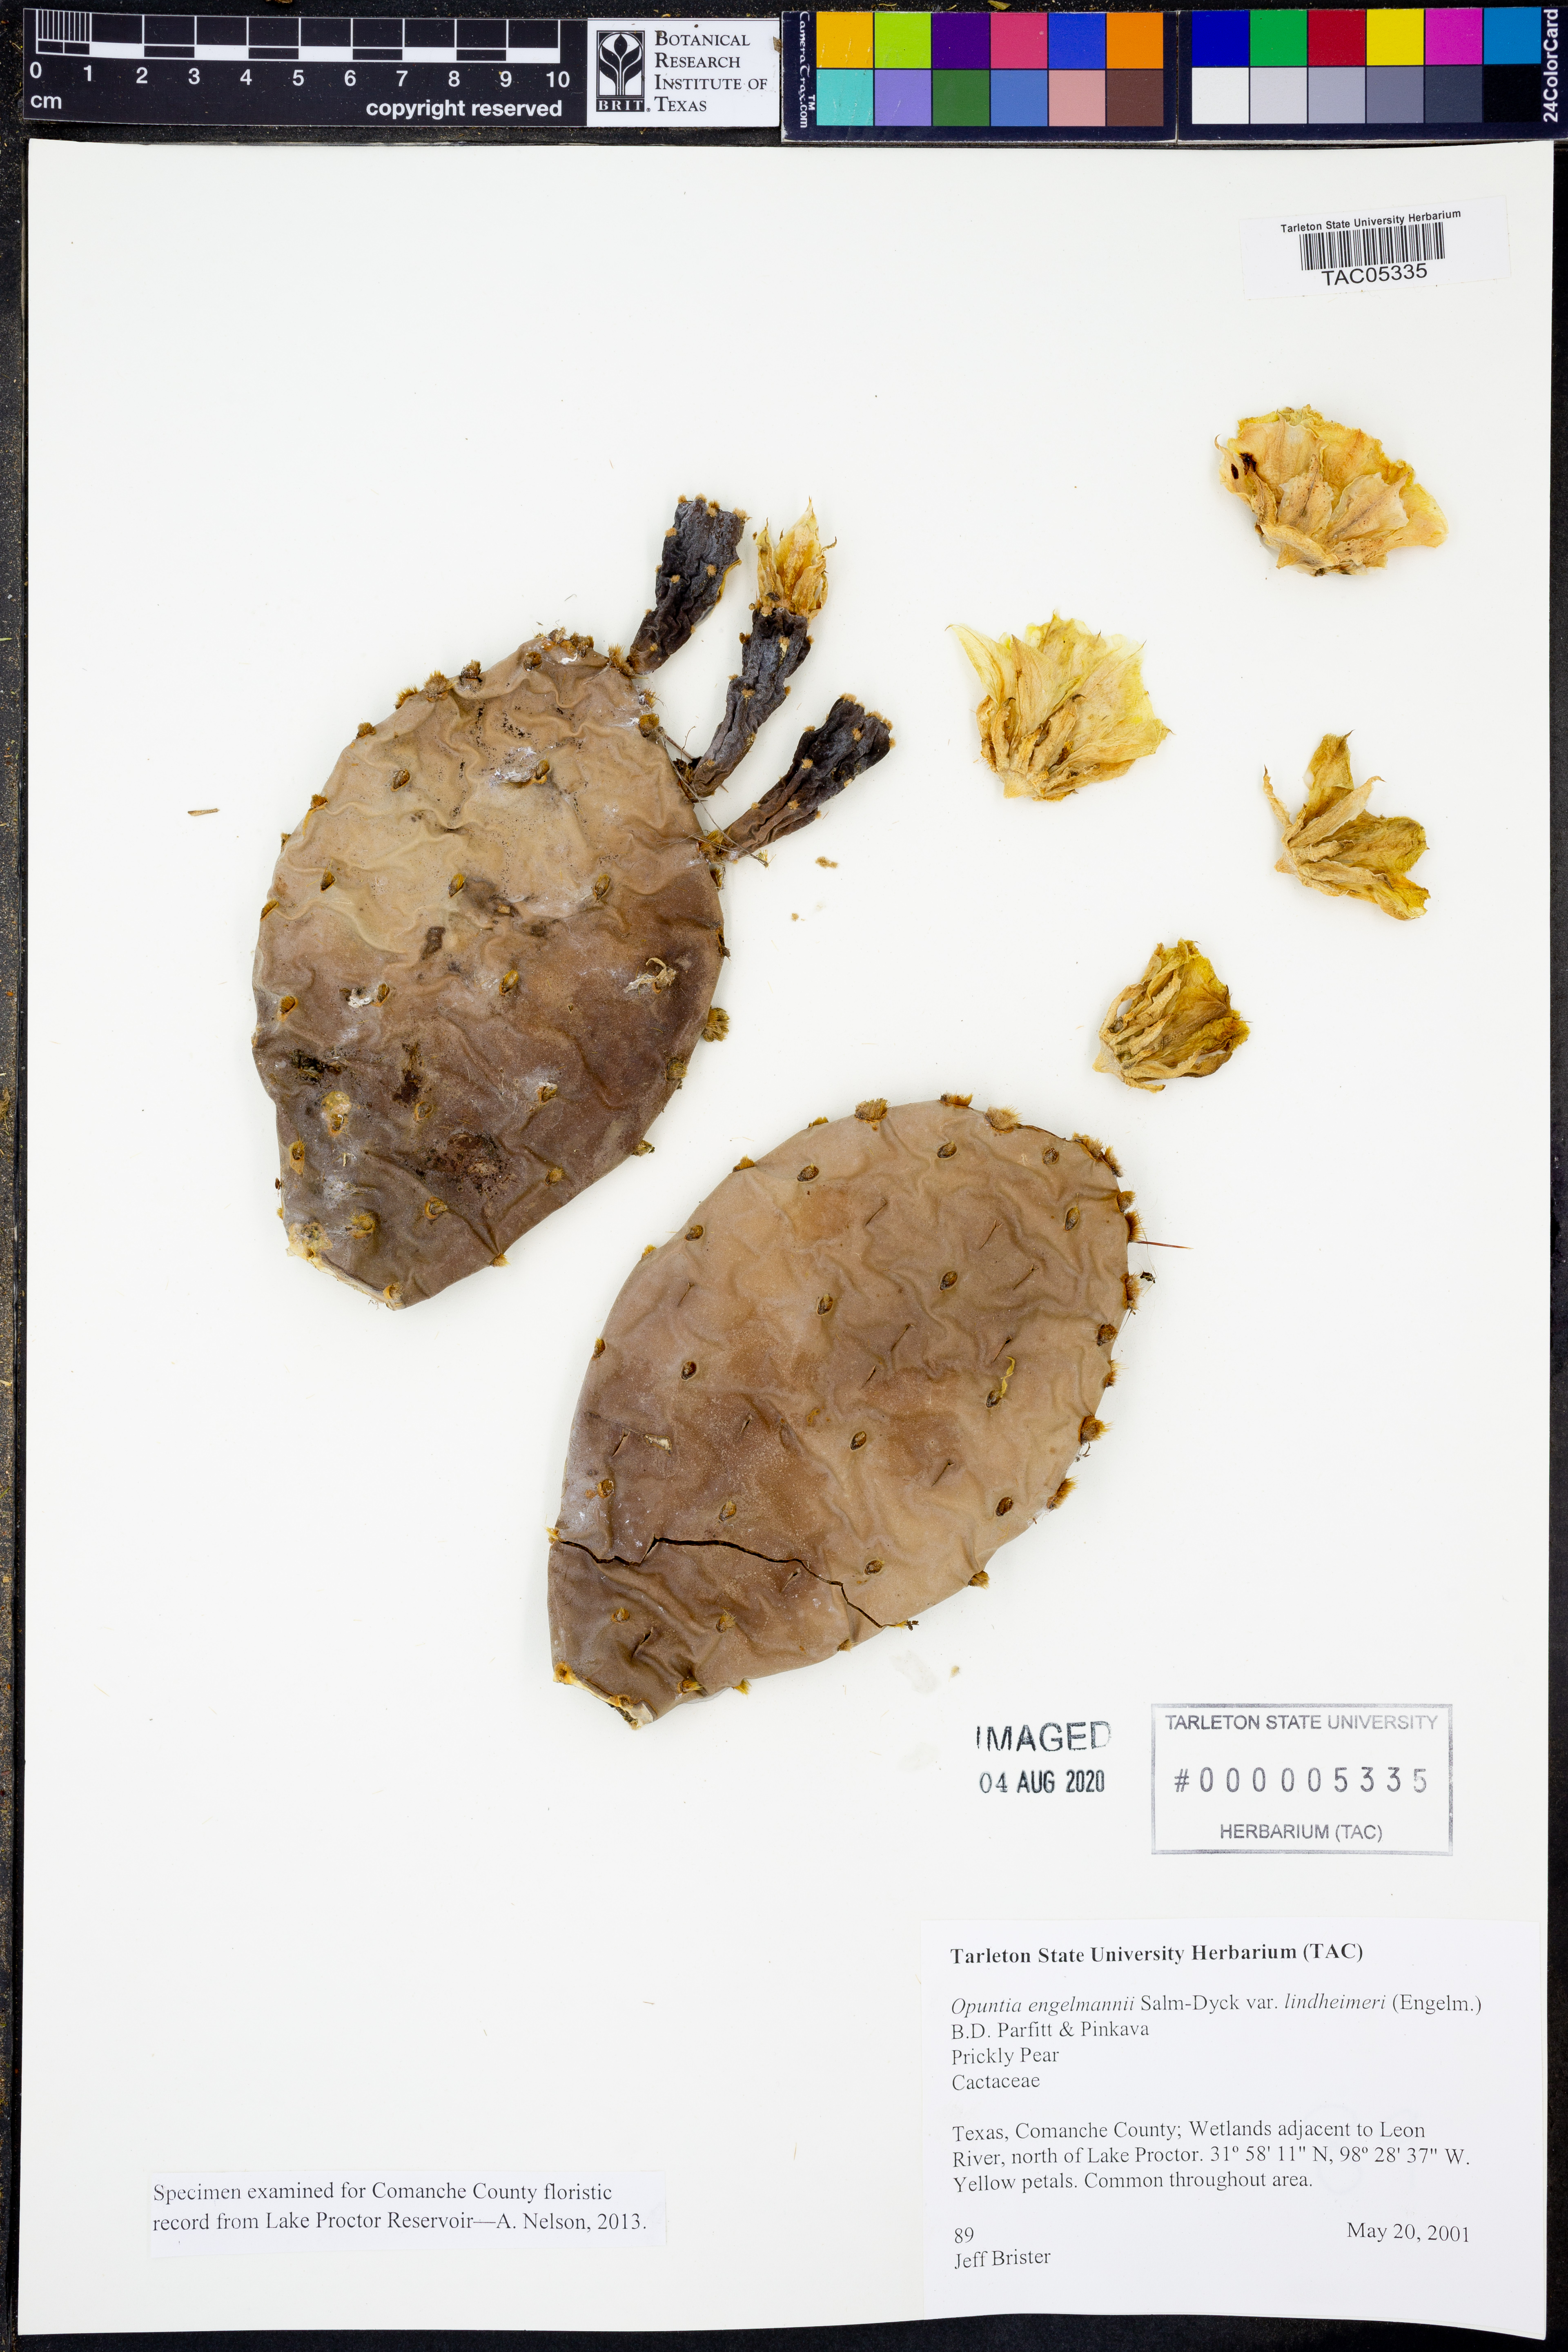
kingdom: Plantae
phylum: Tracheophyta
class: Magnoliopsida
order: Caryophyllales
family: Cactaceae
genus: Opuntia
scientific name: Opuntia engelmannii
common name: Cactus-apple
